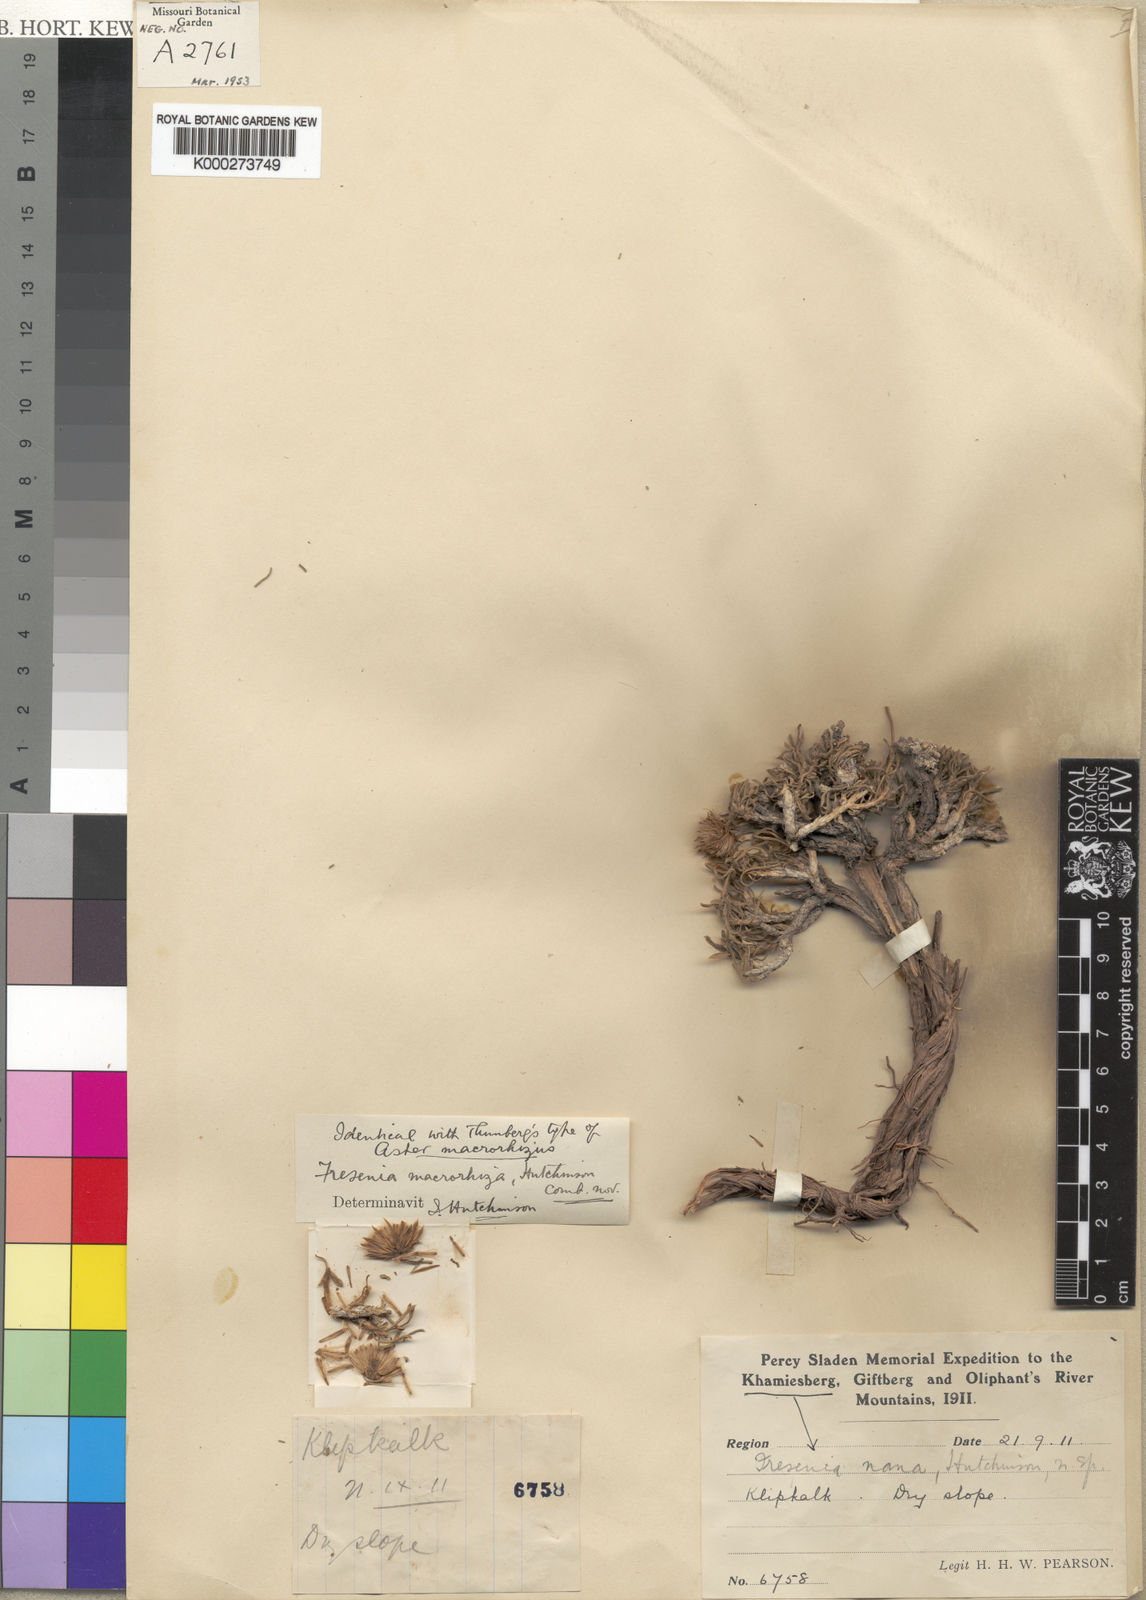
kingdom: Plantae
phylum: Tracheophyta
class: Magnoliopsida
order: Asterales
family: Asteraceae
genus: Felicia
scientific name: Felicia macrorrhiza
